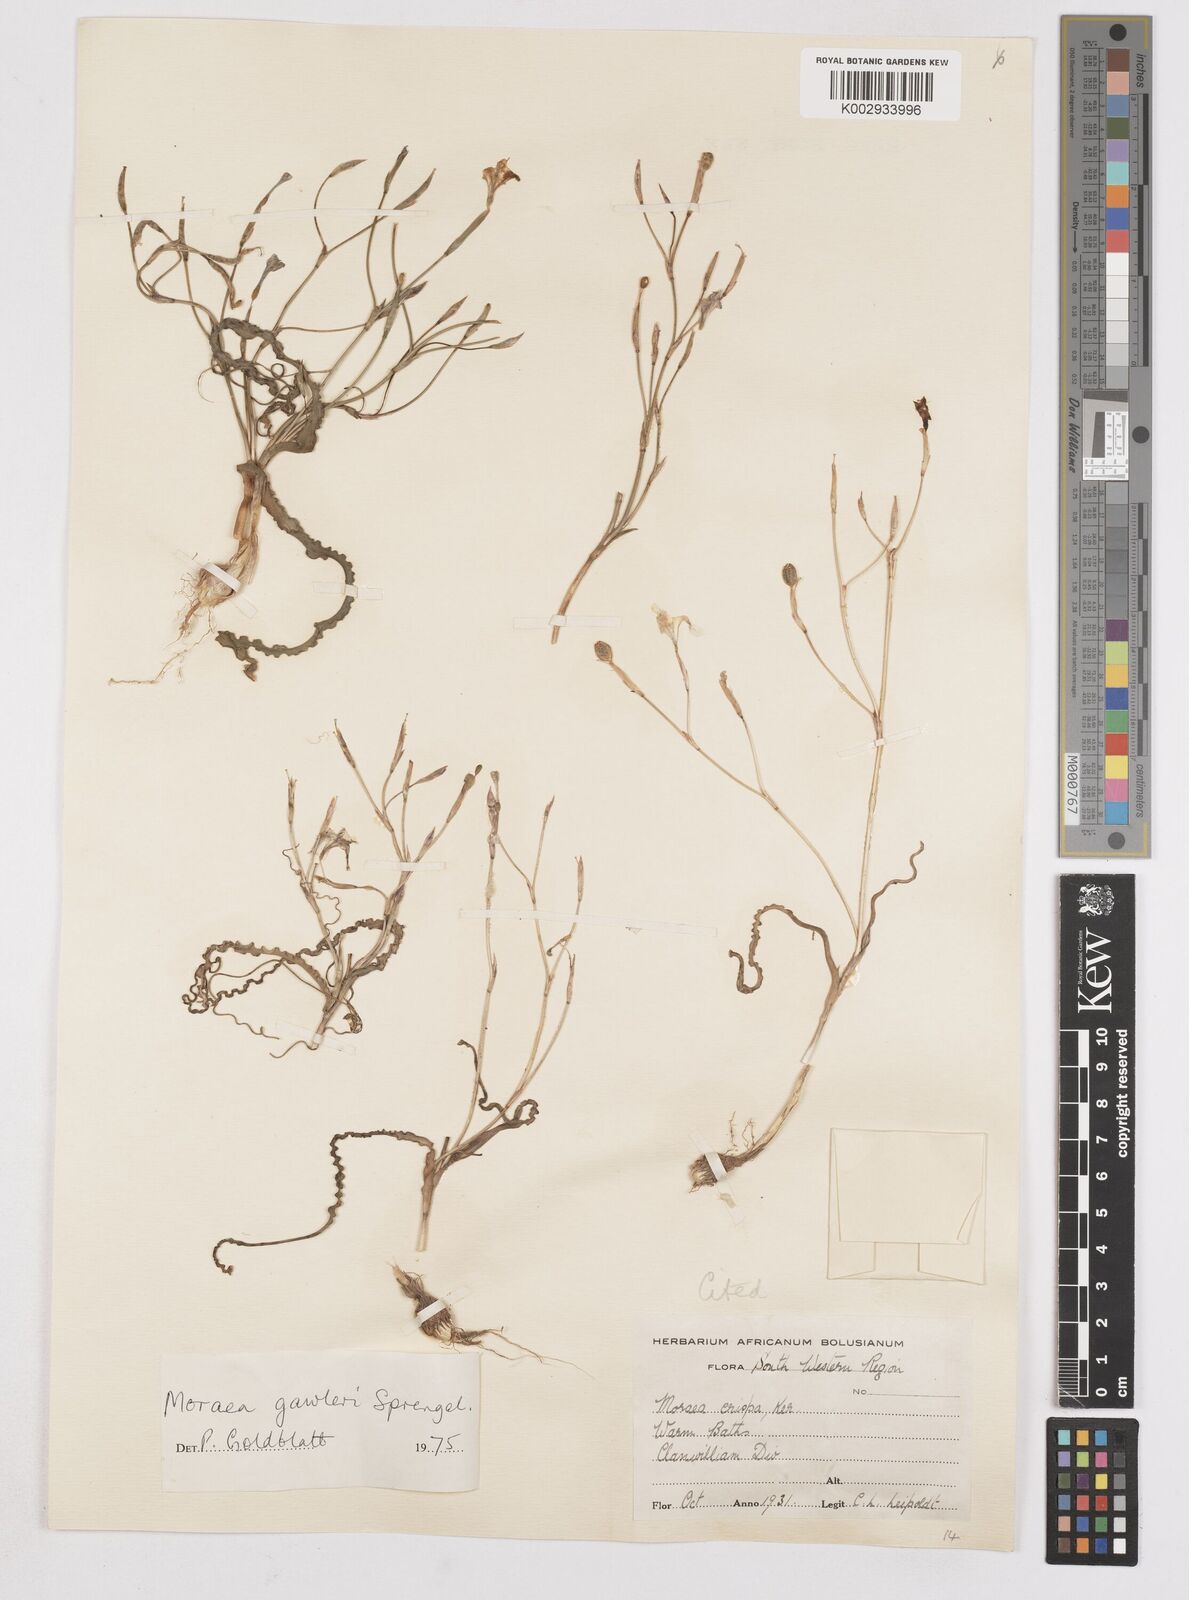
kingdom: Plantae
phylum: Tracheophyta
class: Liliopsida
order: Asparagales
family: Iridaceae
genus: Moraea
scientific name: Moraea gawleri
